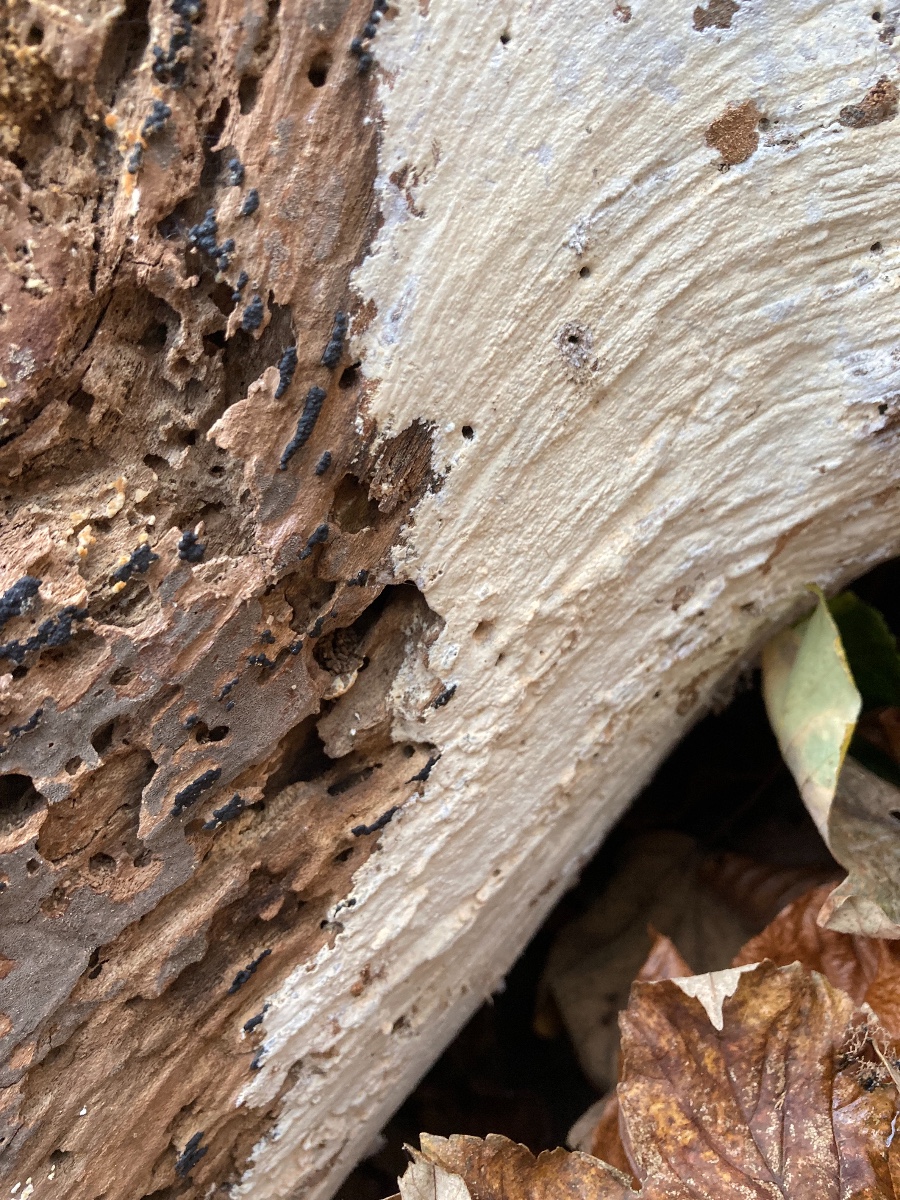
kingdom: Fungi
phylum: Basidiomycota
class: Agaricomycetes
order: Russulales
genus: Gloeohypochnicium
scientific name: Gloeohypochnicium analogum
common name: frugt-kalkskind
